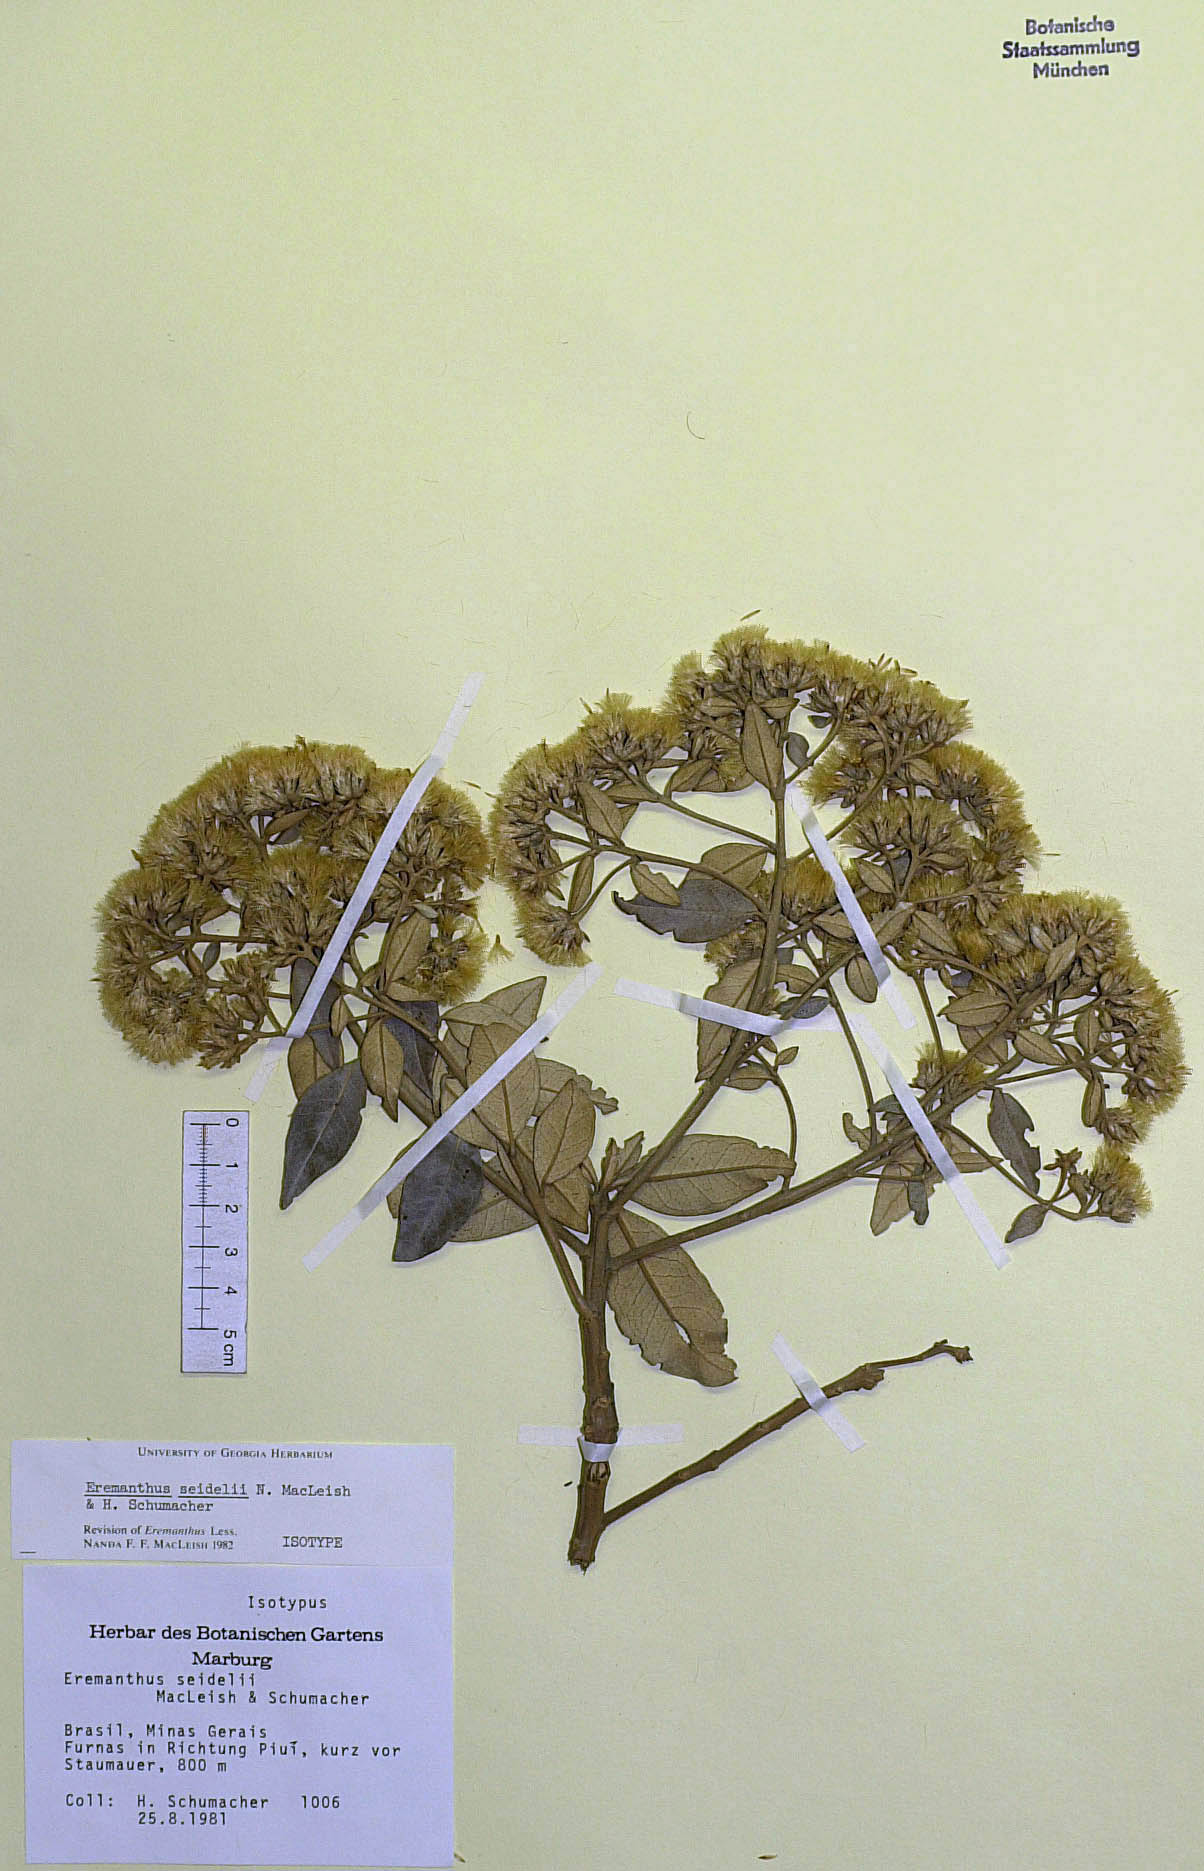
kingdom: Plantae
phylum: Tracheophyta
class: Magnoliopsida
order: Asterales
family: Asteraceae
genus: Eremanthus
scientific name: Eremanthus elaeagnus
